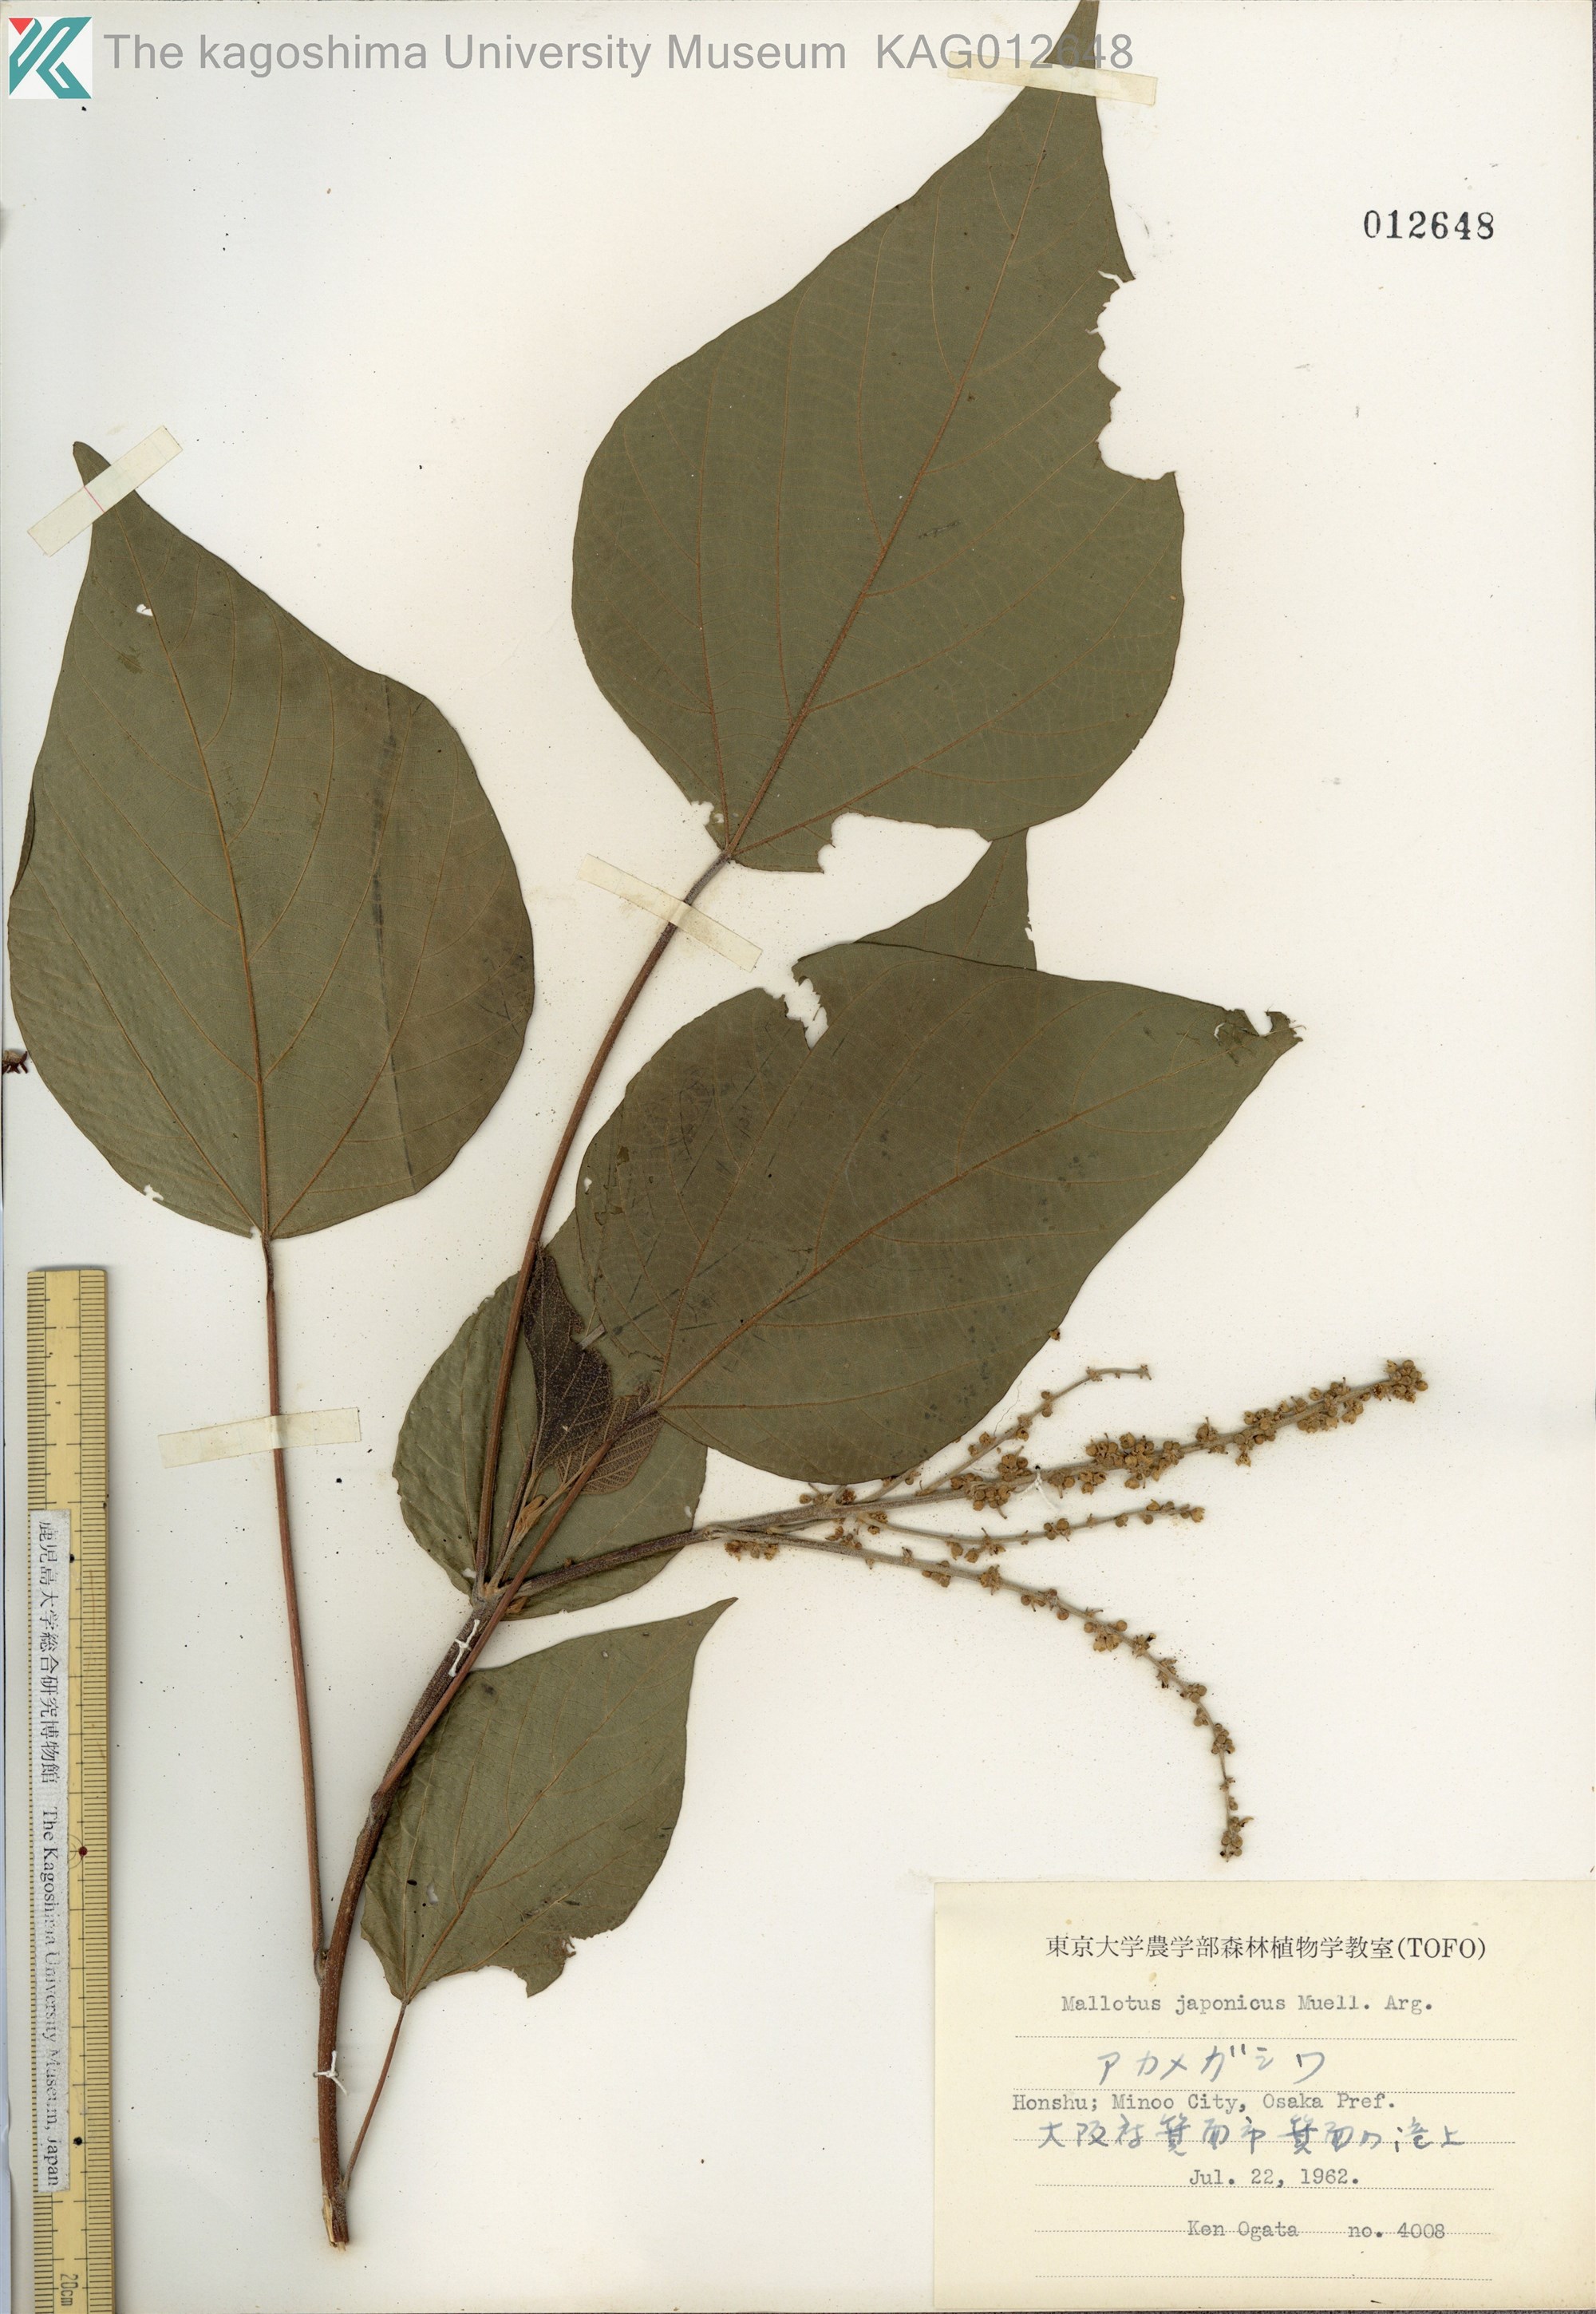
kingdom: Plantae
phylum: Tracheophyta
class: Magnoliopsida
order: Malpighiales
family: Euphorbiaceae
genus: Mallotus
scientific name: Mallotus japonicus
